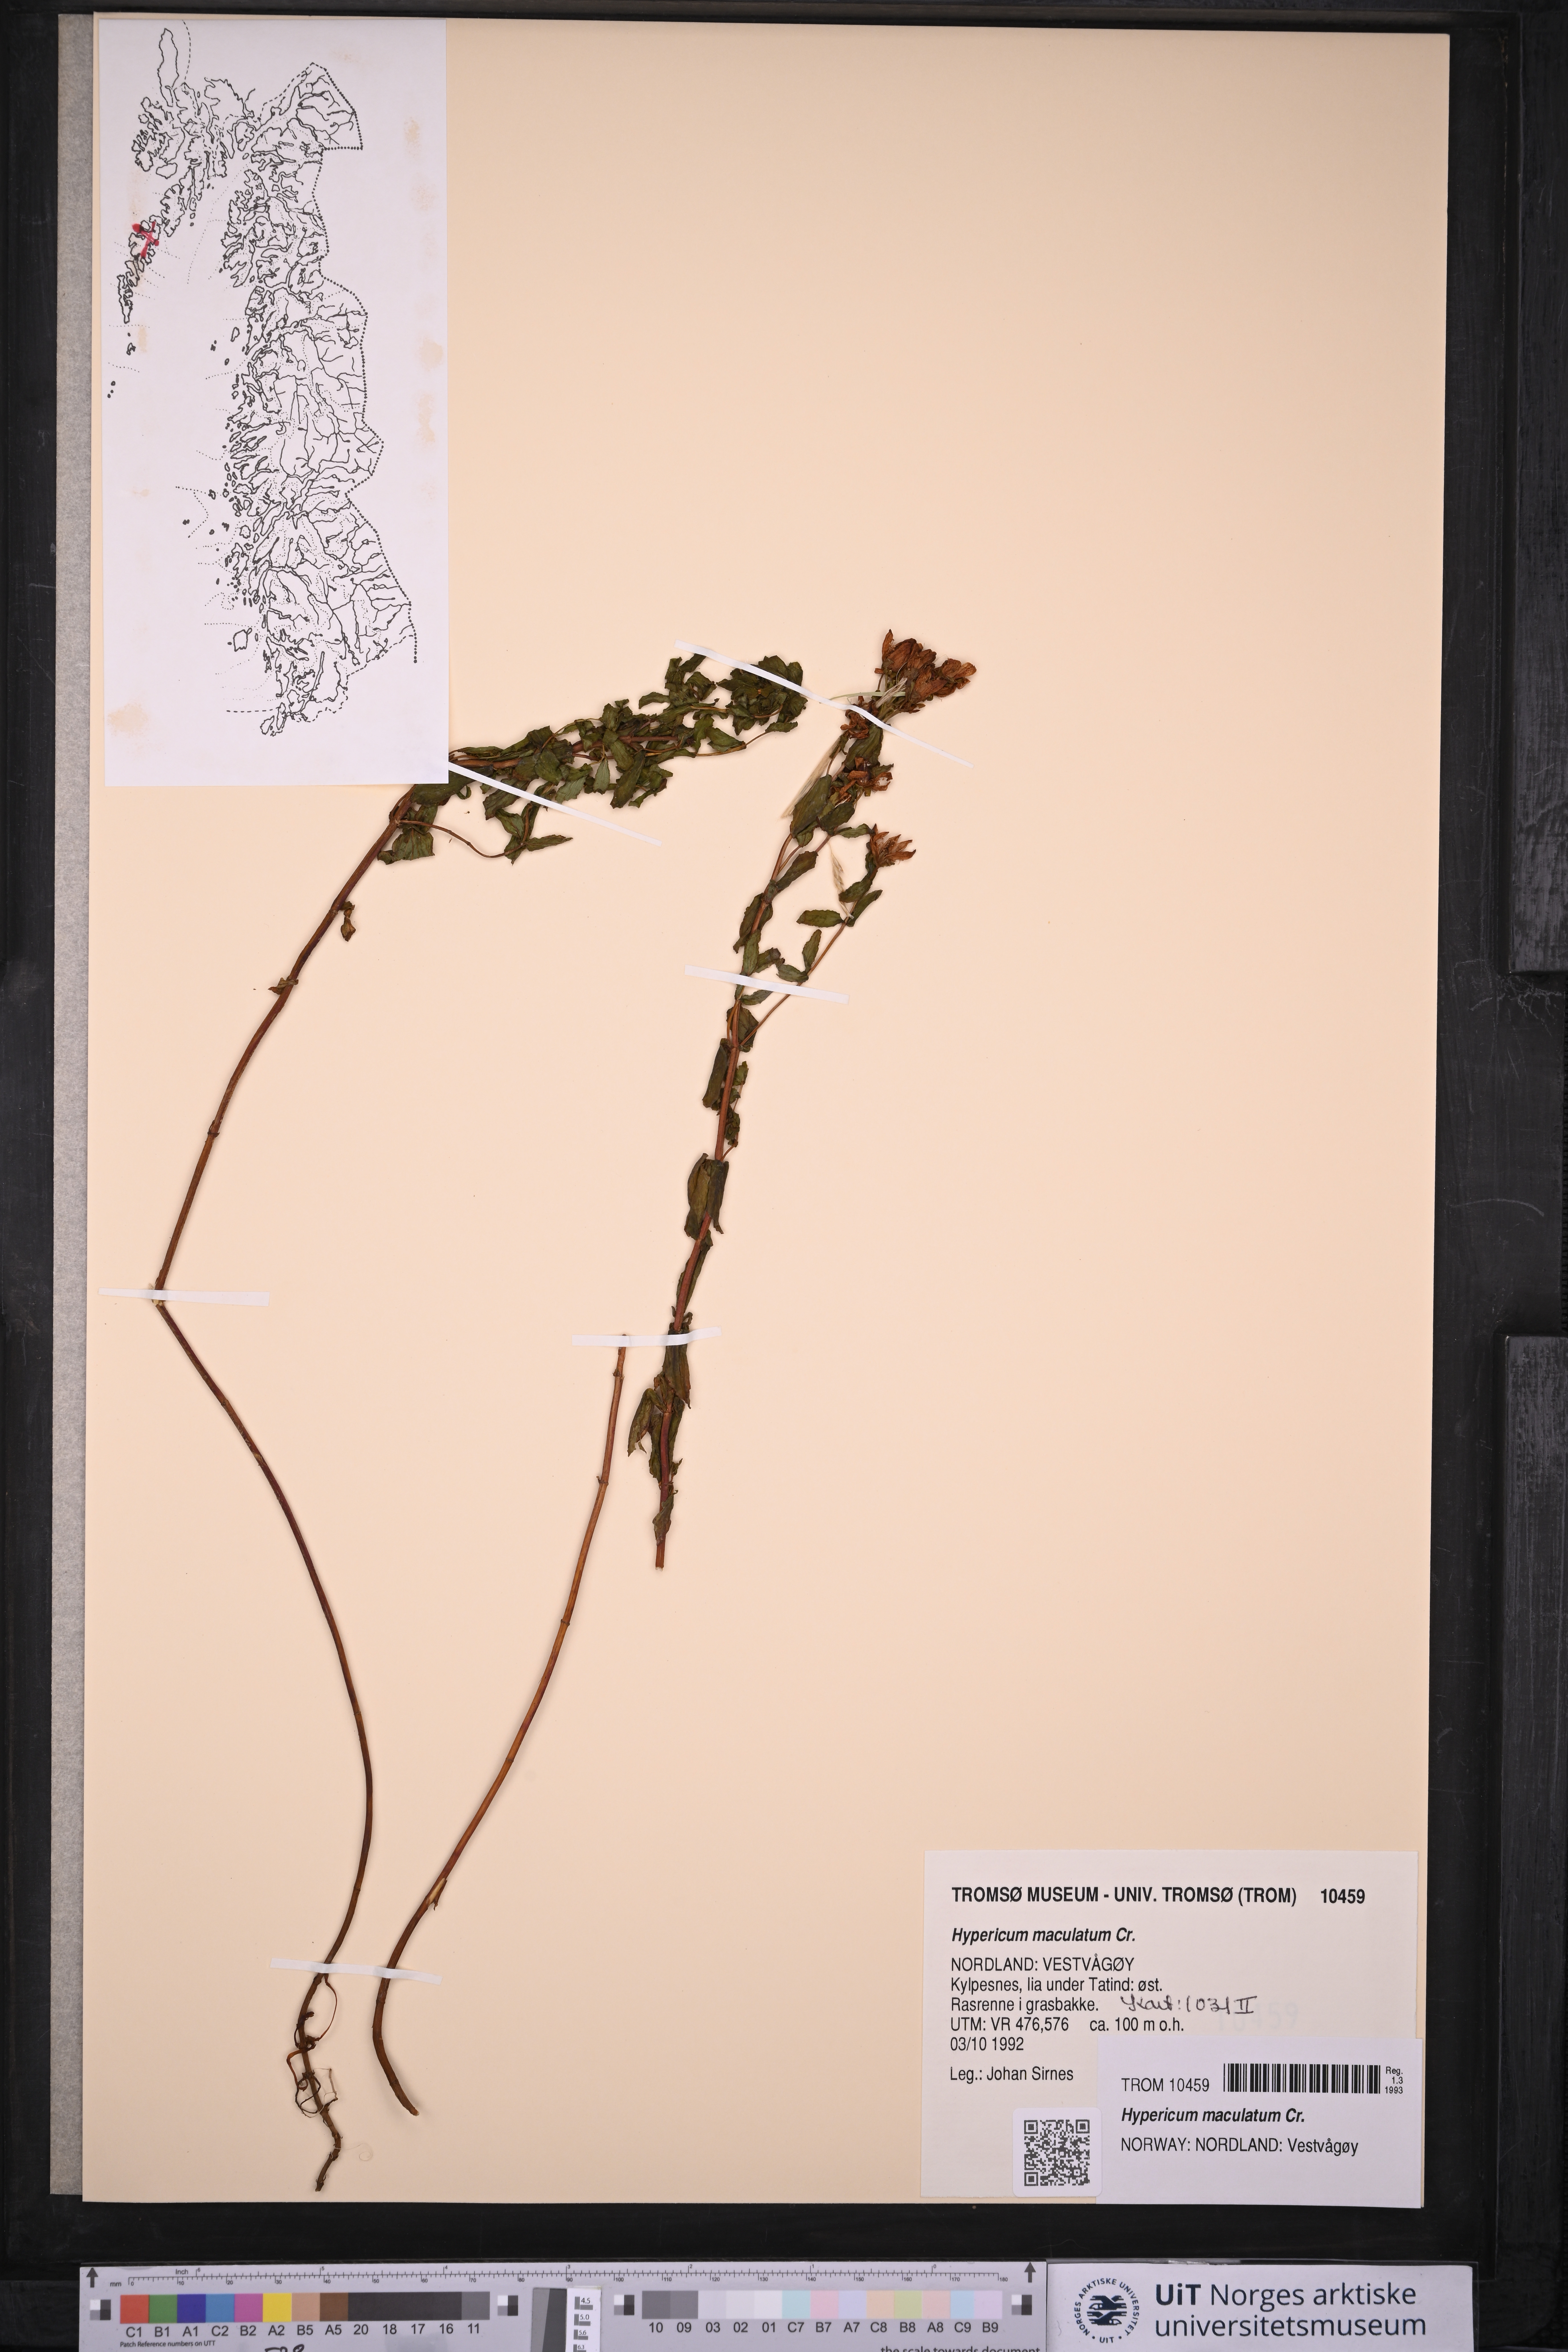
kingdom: Plantae
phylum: Tracheophyta
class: Magnoliopsida
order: Malpighiales
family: Hypericaceae
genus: Hypericum
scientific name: Hypericum maculatum
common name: Imperforate st. john's-wort
